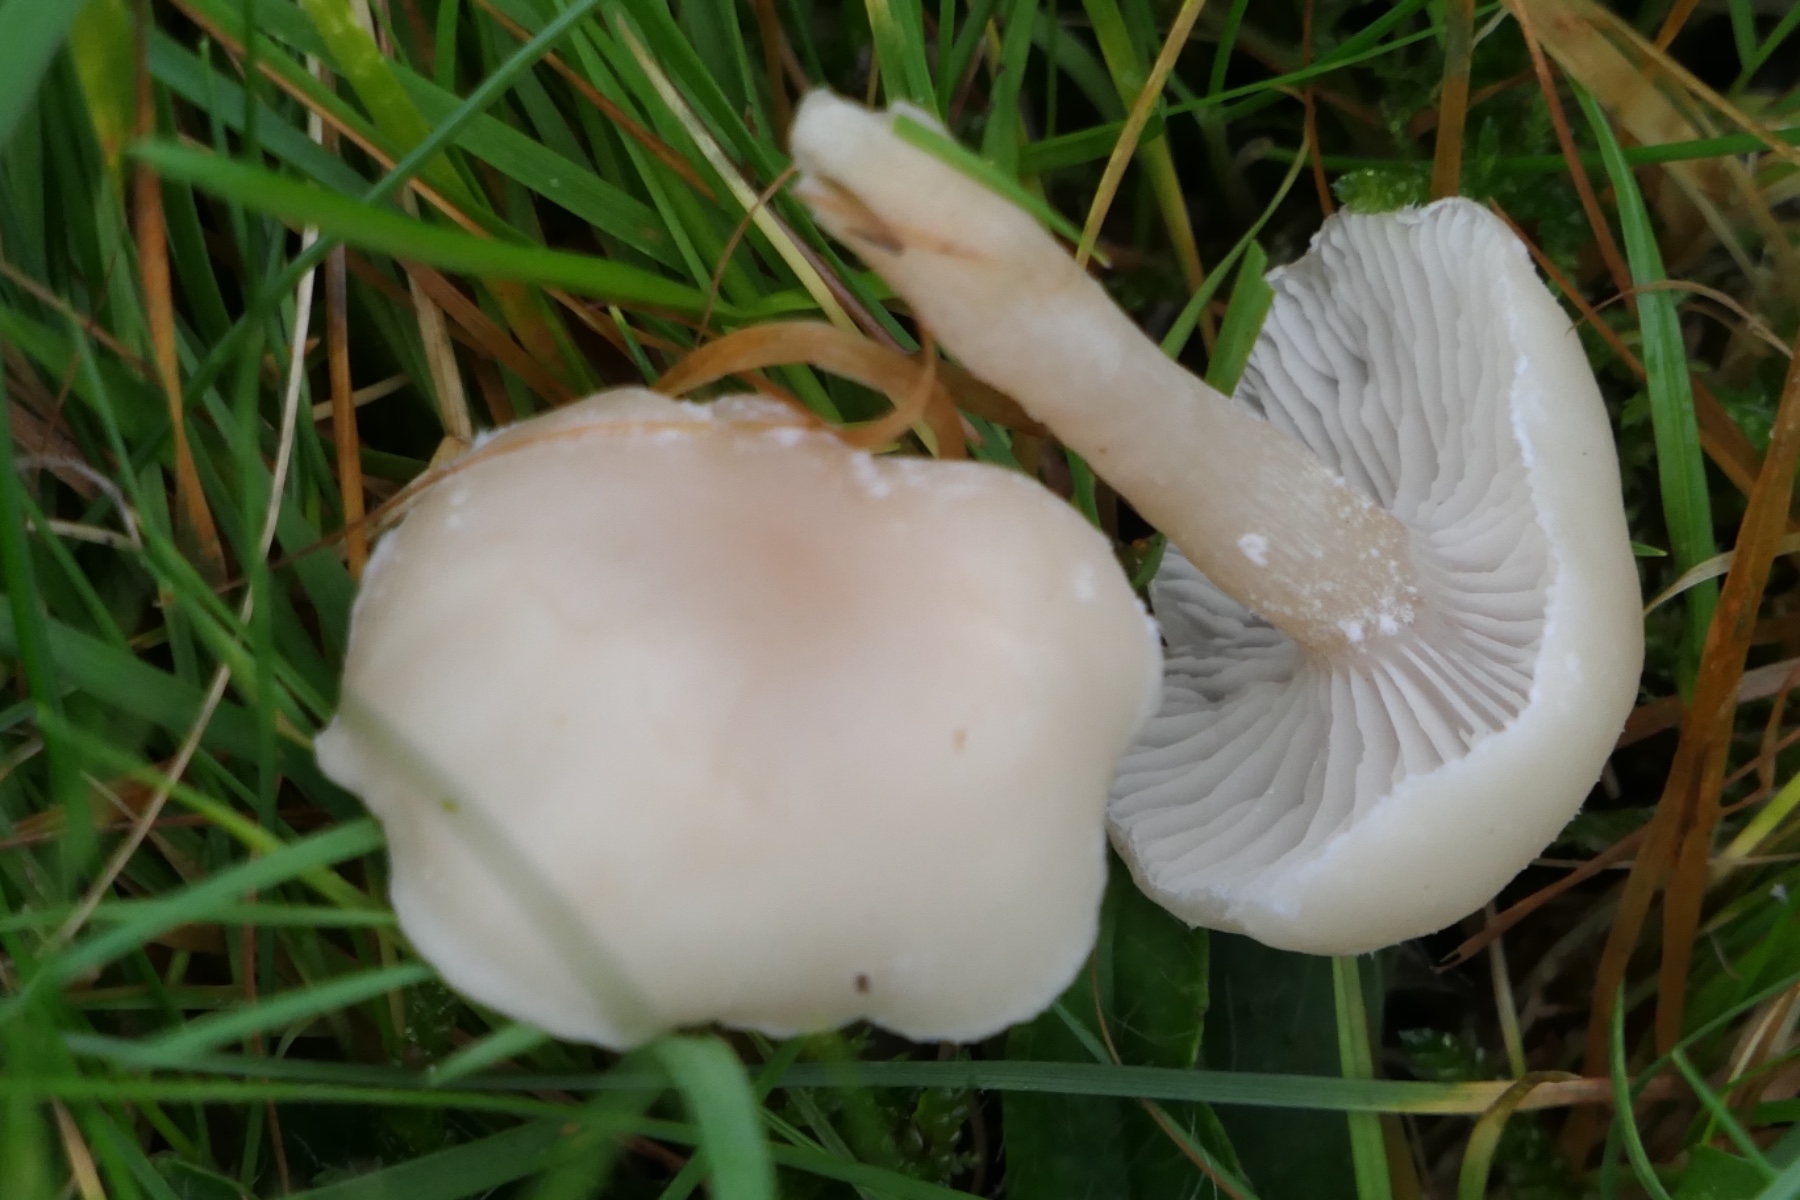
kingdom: Fungi
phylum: Basidiomycota
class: Agaricomycetes
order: Agaricales
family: Hygrophoraceae
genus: Cuphophyllus
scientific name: Cuphophyllus russocoriaceus
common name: ruslæder-vokshat
